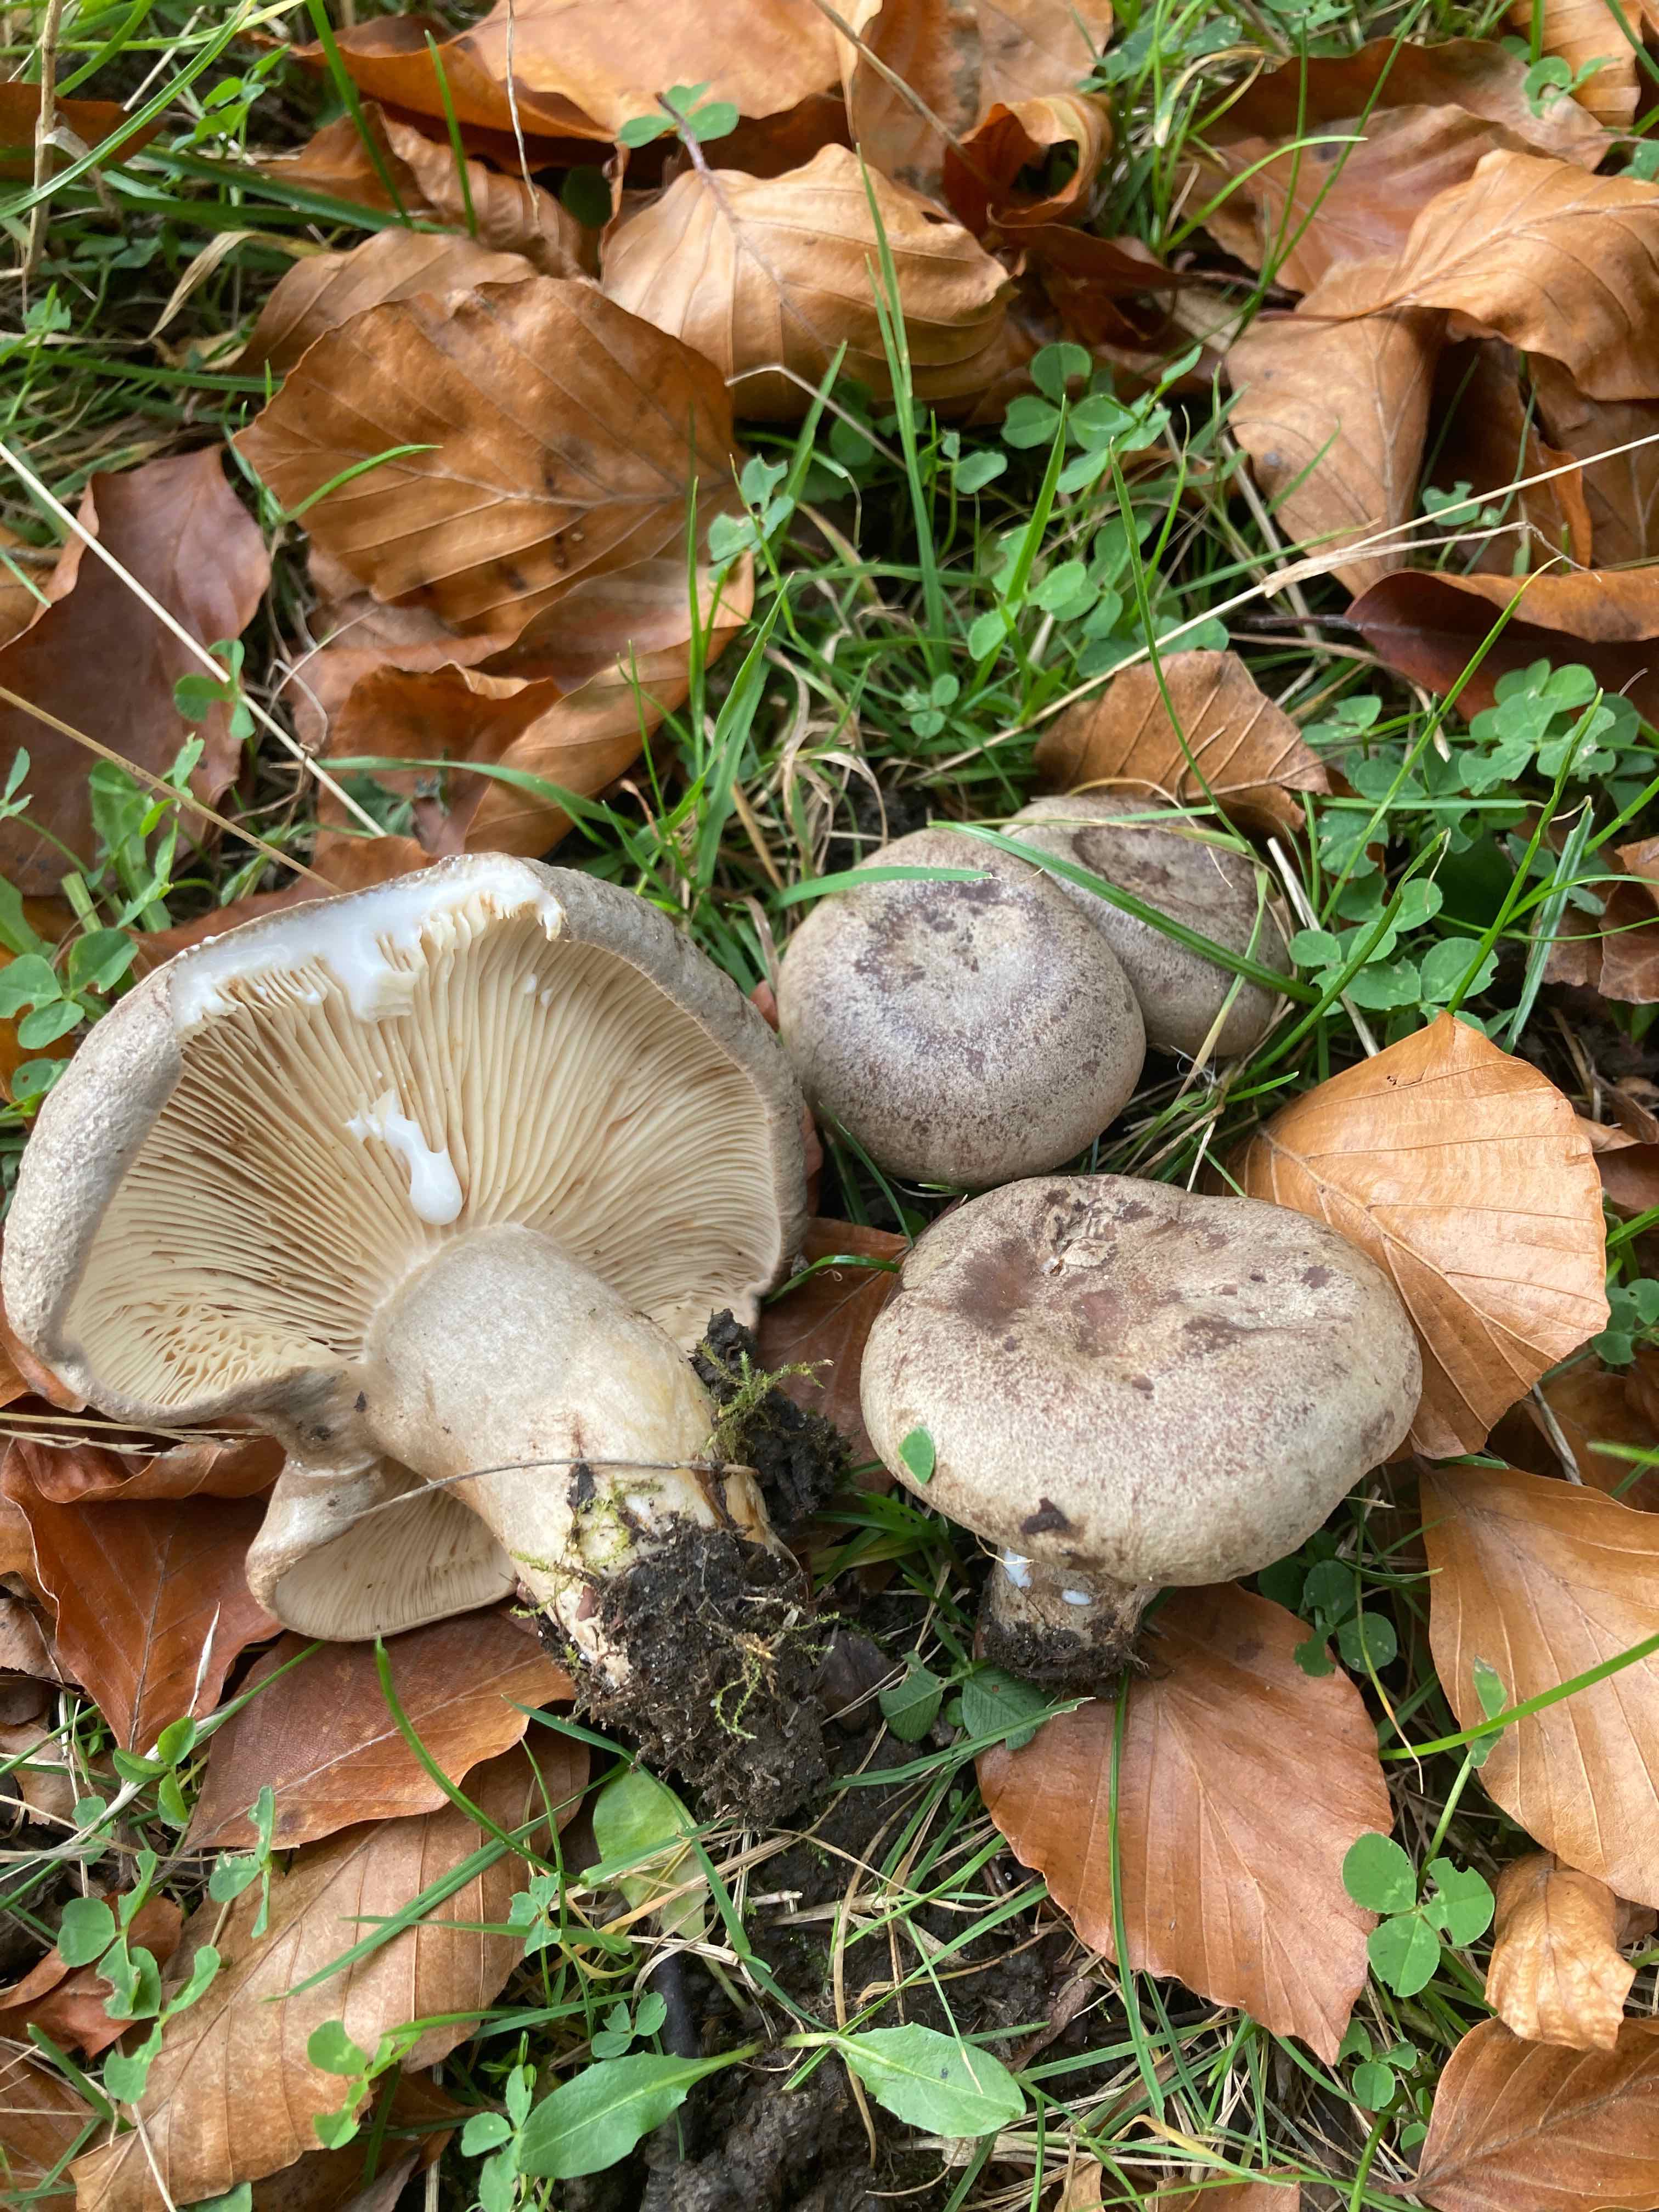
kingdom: Fungi
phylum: Basidiomycota
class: Agaricomycetes
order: Russulales
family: Russulaceae
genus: Lactarius
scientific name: Lactarius fluens
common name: lysrandet mælkehat
